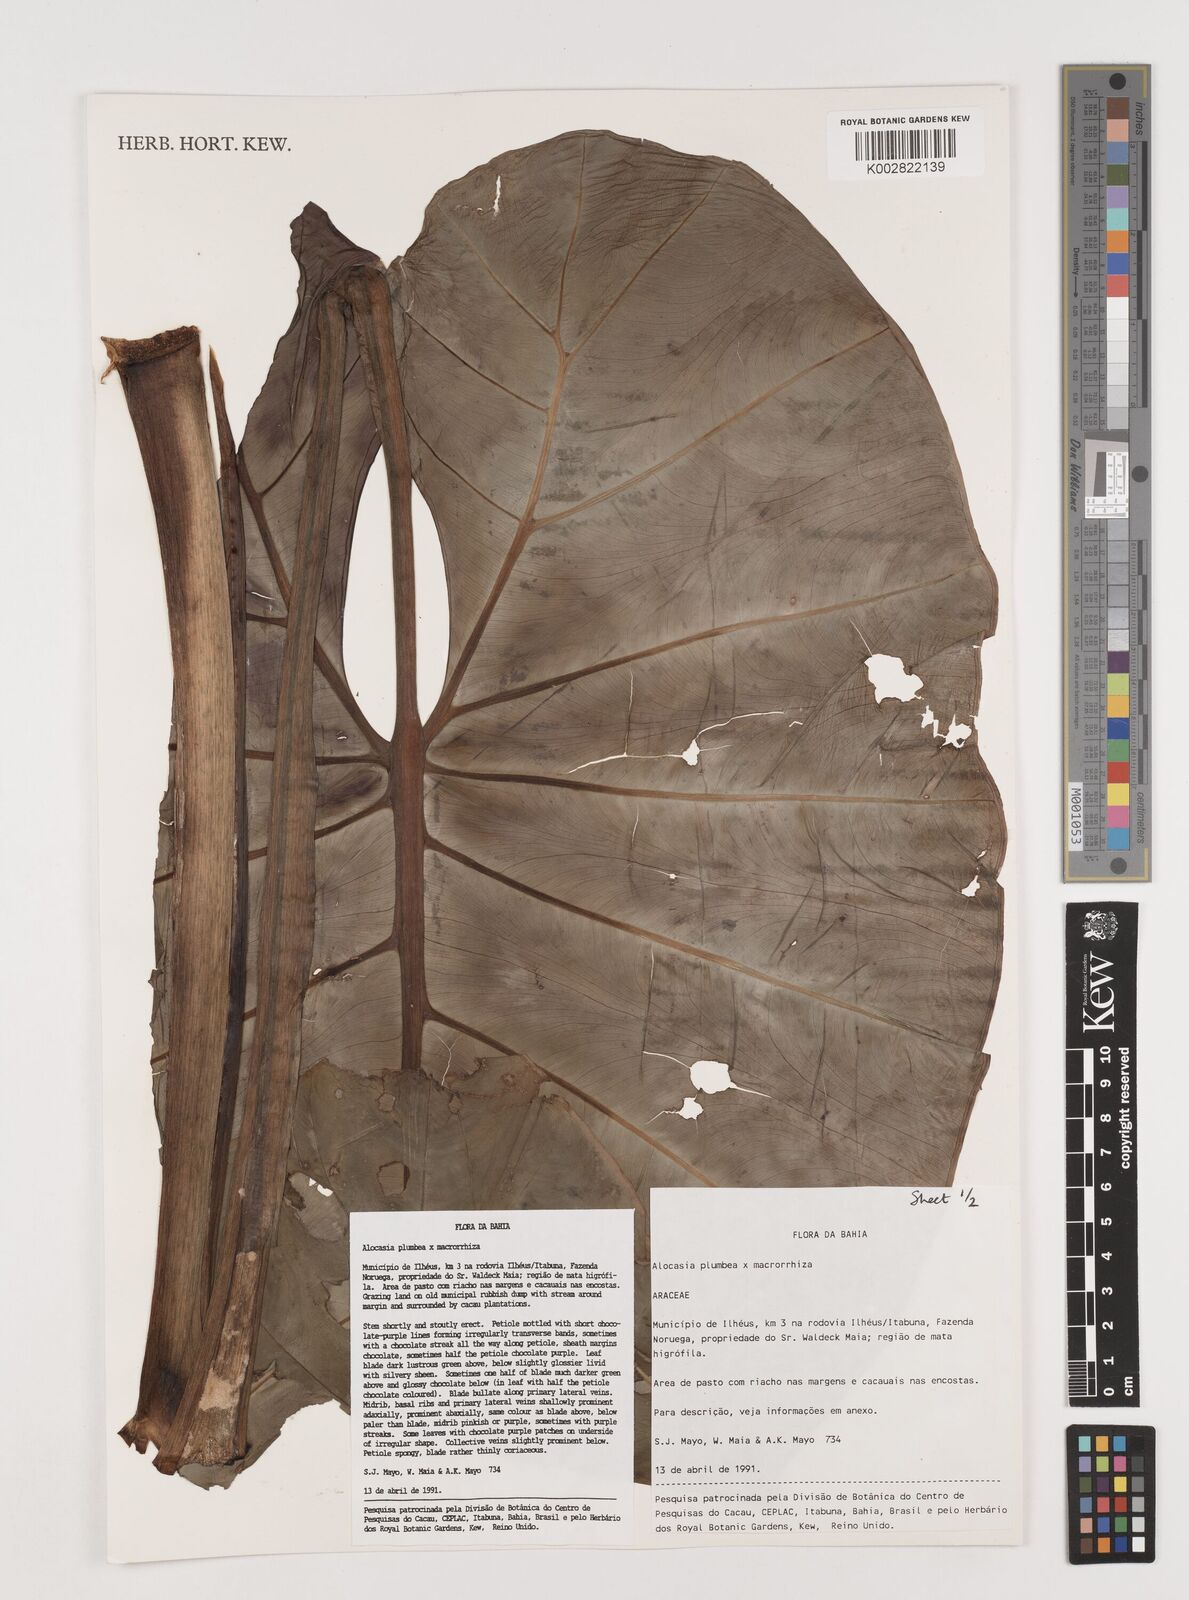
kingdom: Plantae
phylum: Tracheophyta
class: Liliopsida
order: Alismatales
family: Araceae
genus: Alocasia
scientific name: Alocasia macrorrhizos
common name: Giant taro
